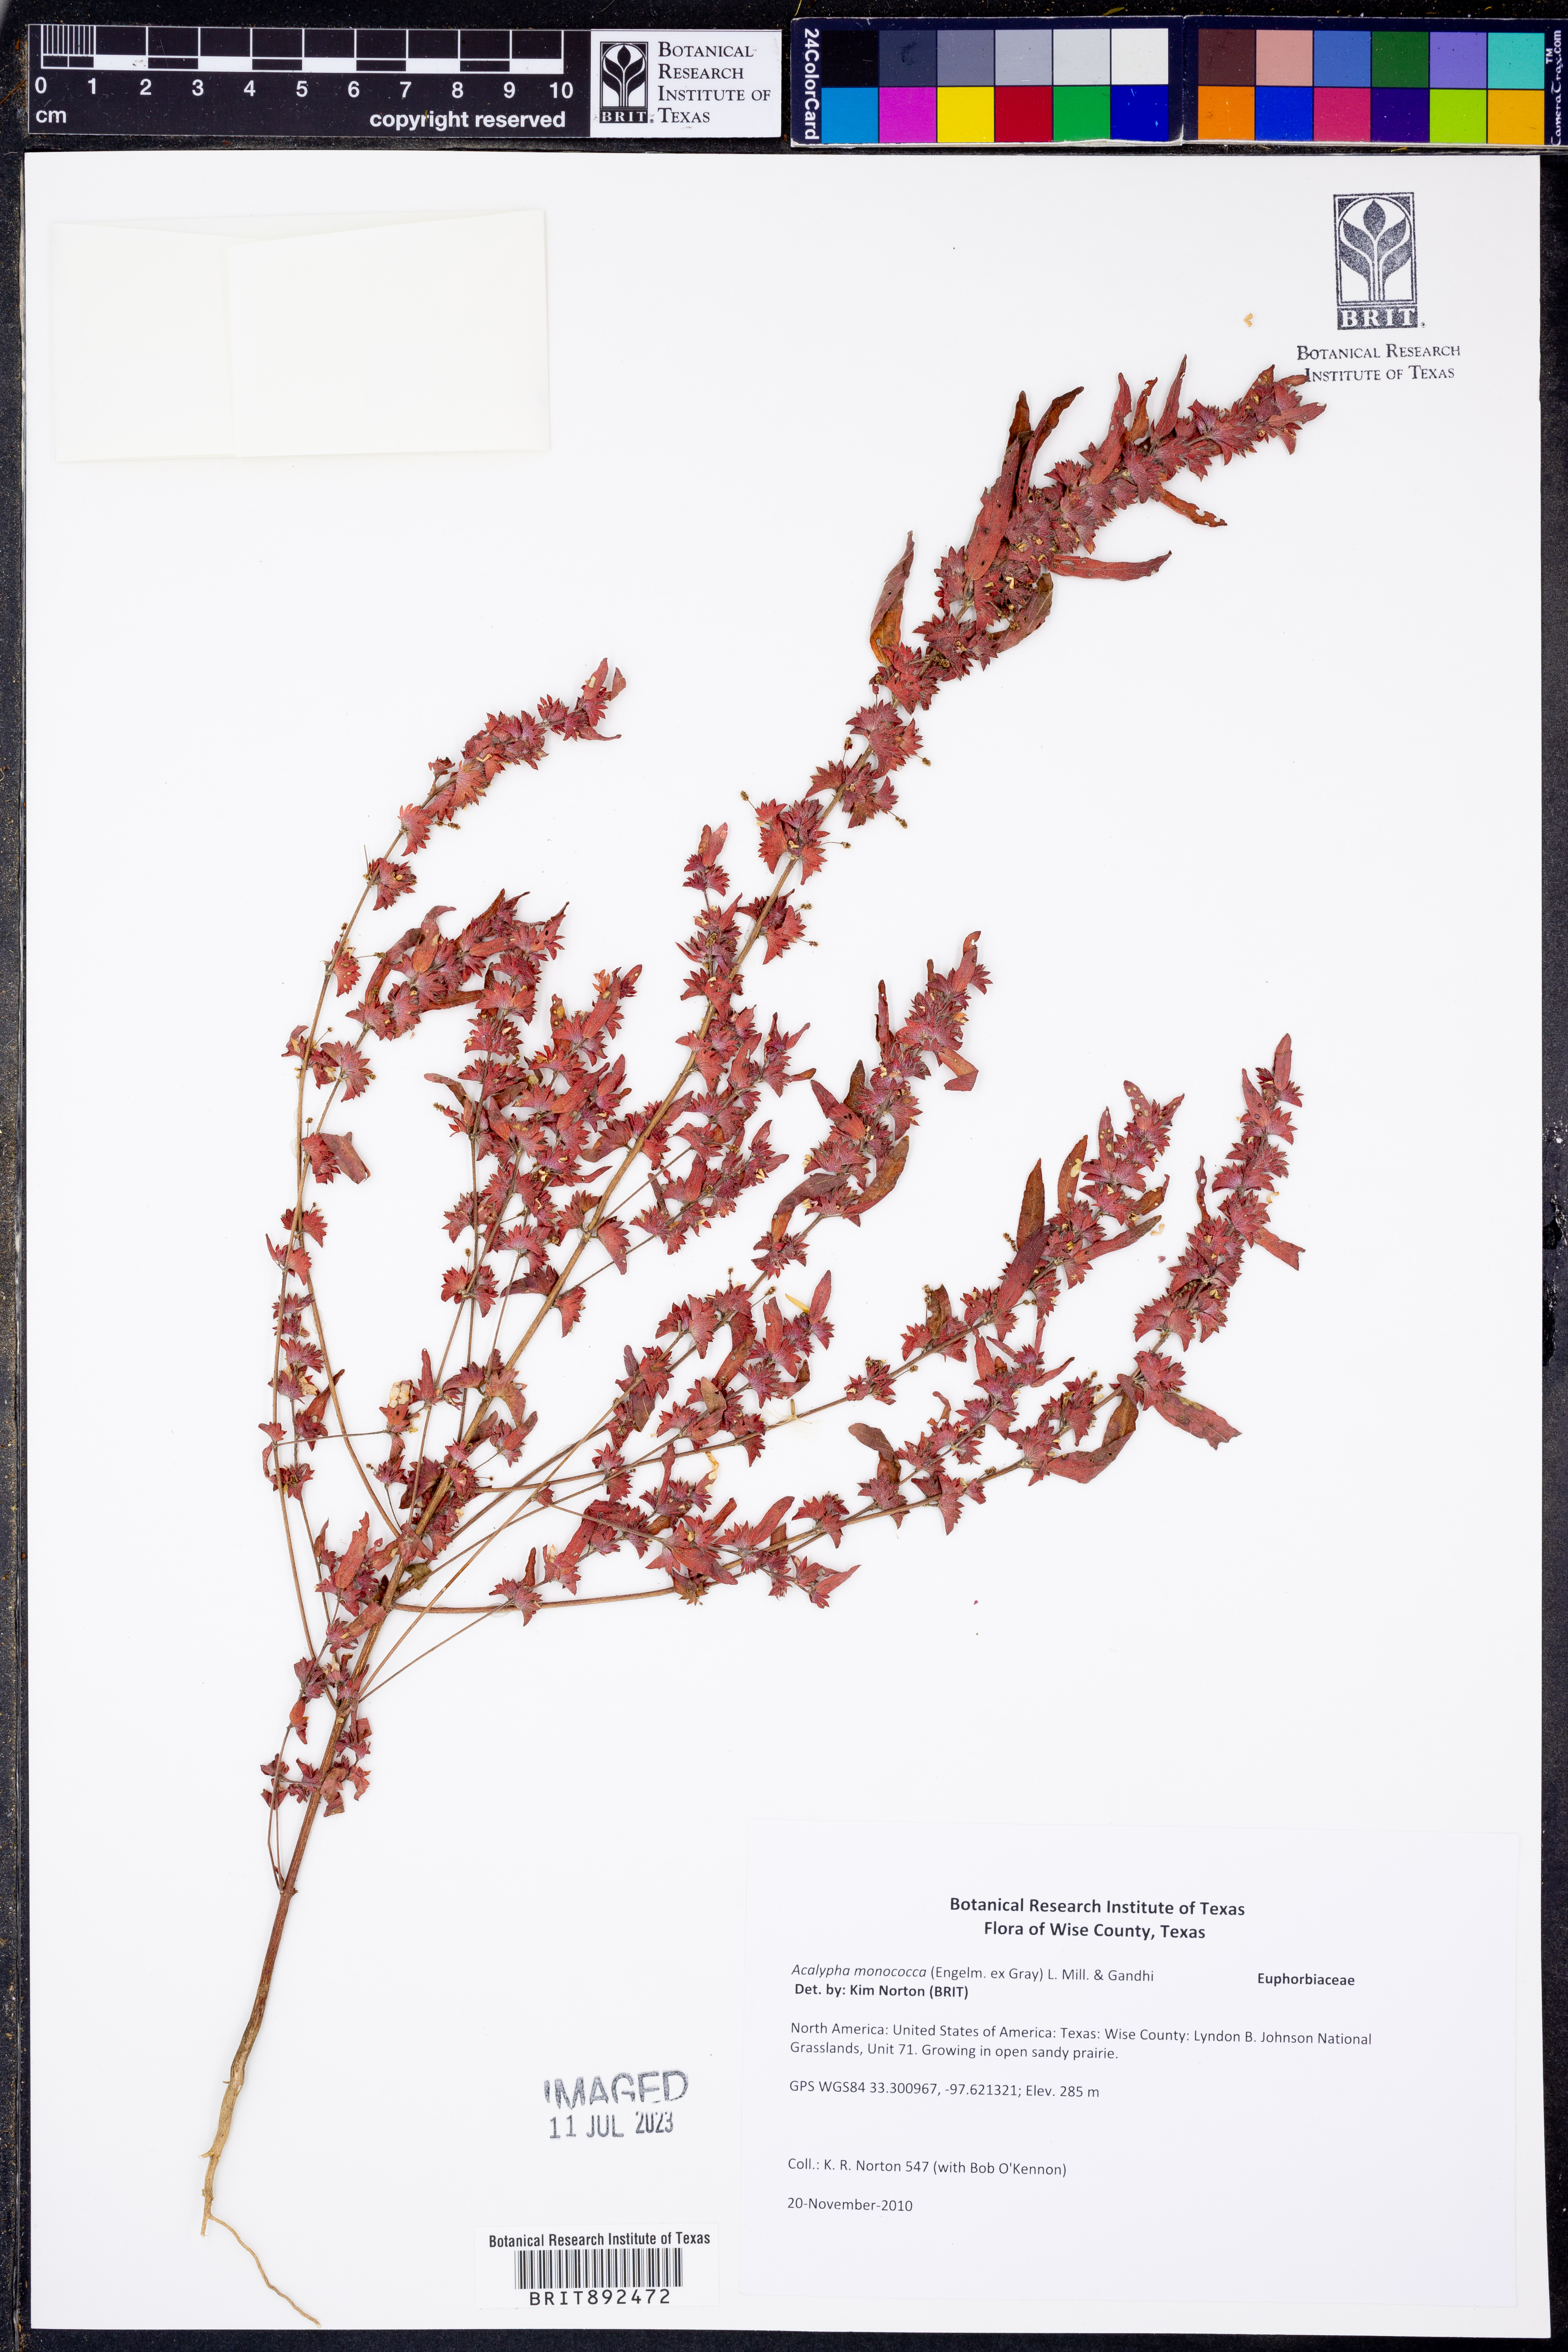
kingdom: Plantae
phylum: Tracheophyta
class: Magnoliopsida
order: Malpighiales
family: Euphorbiaceae
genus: Acalypha
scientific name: Acalypha monococca
